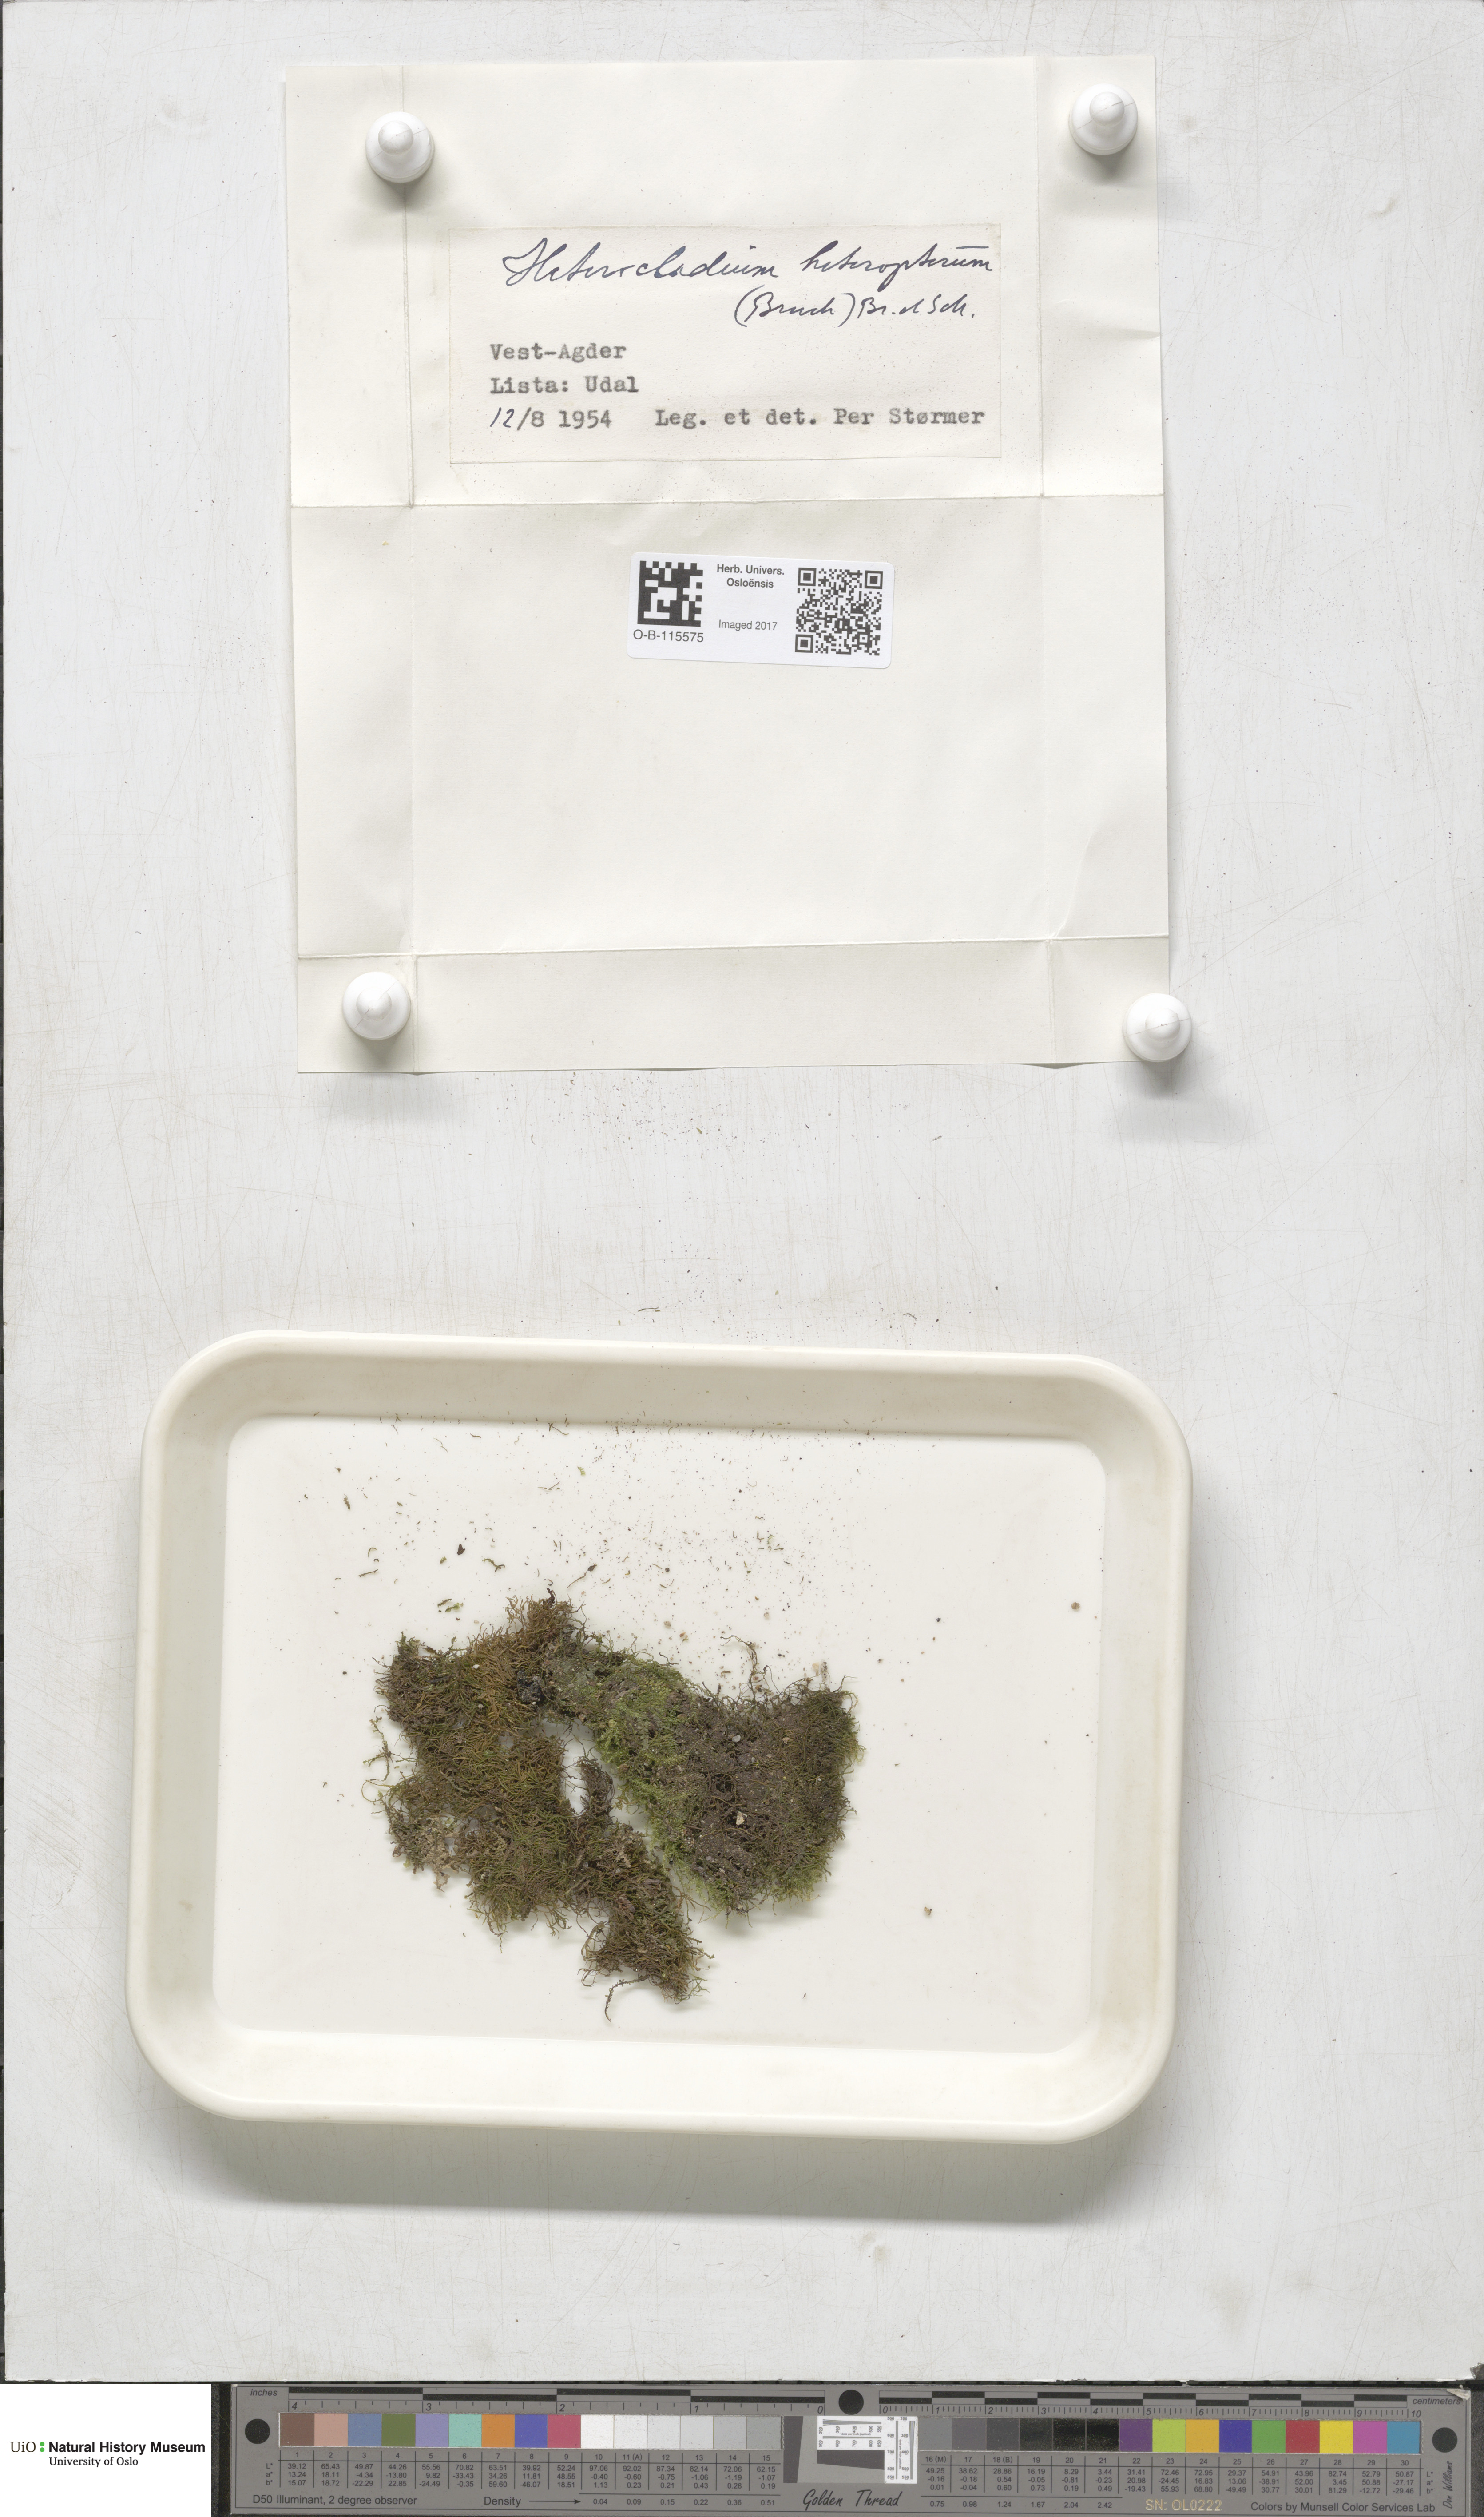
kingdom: Plantae
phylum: Bryophyta
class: Bryopsida
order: Hypnales
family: Lembophyllaceae
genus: Heterocladium
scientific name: Heterocladium heteropterum
